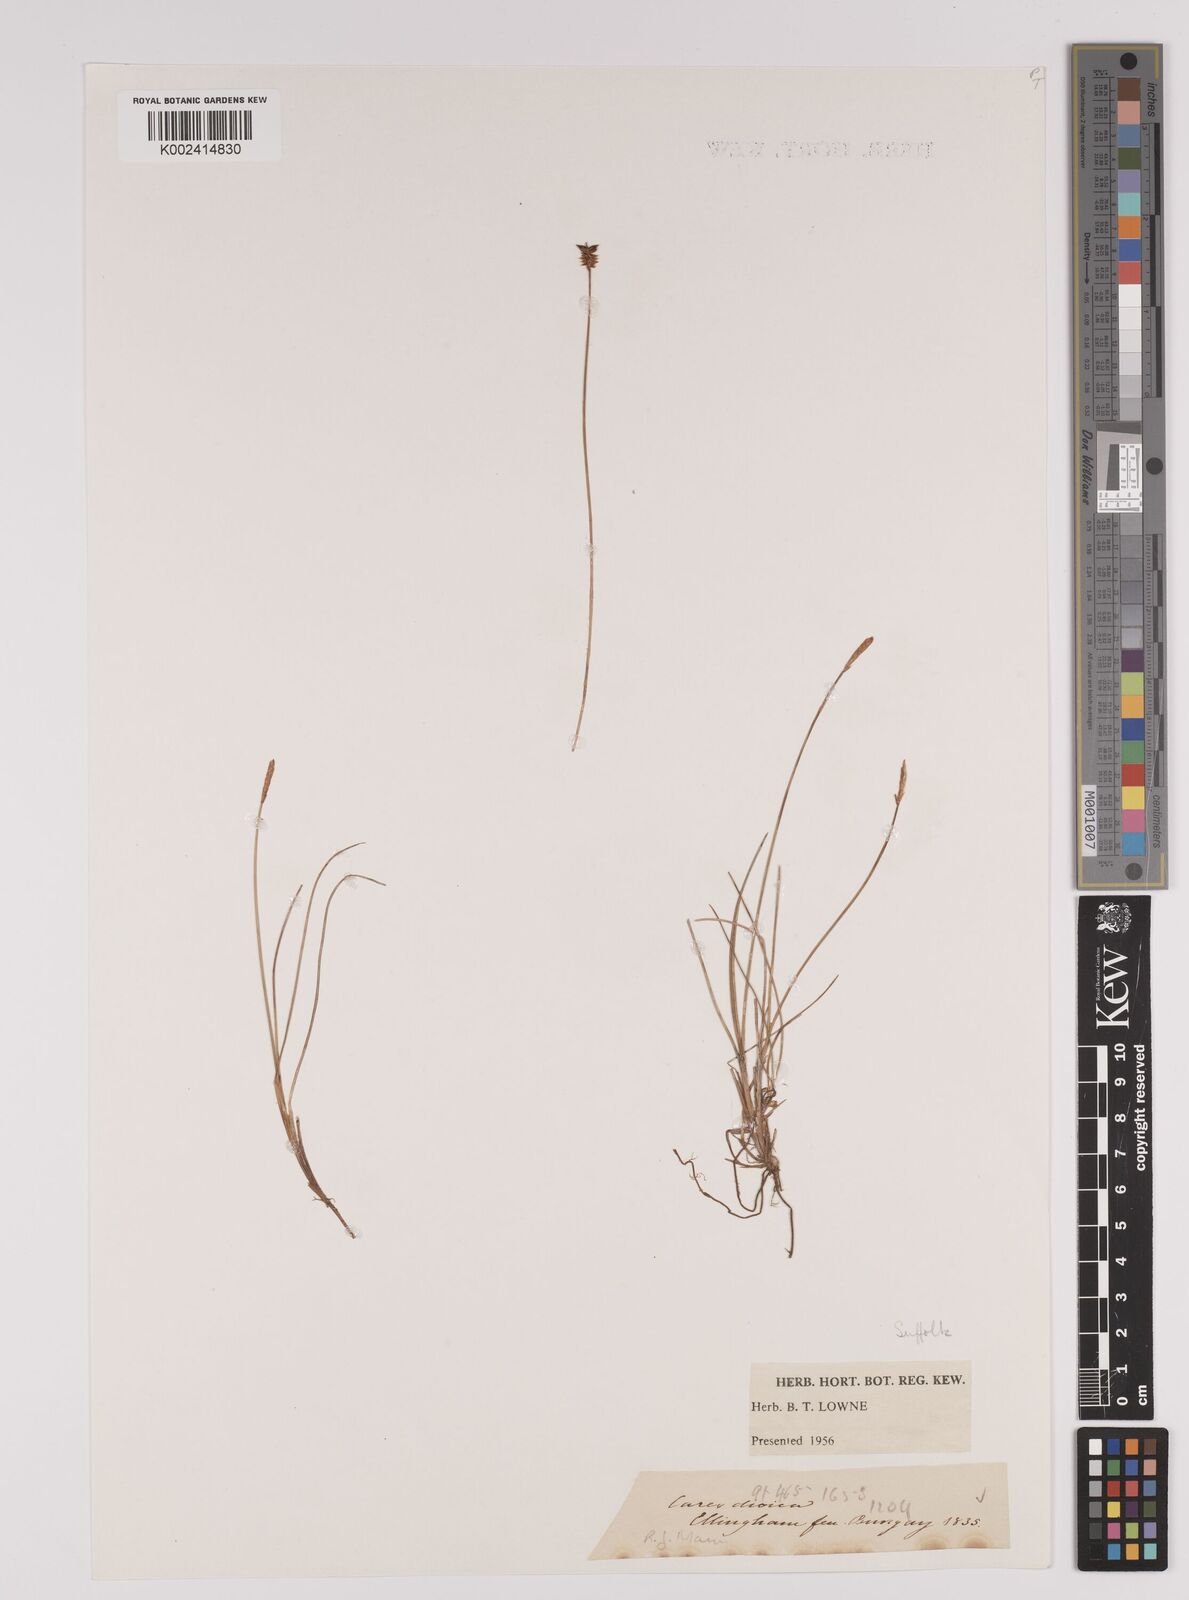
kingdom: Plantae
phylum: Tracheophyta
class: Liliopsida
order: Poales
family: Cyperaceae
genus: Carex
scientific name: Carex dioica
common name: Dioecious sedge
